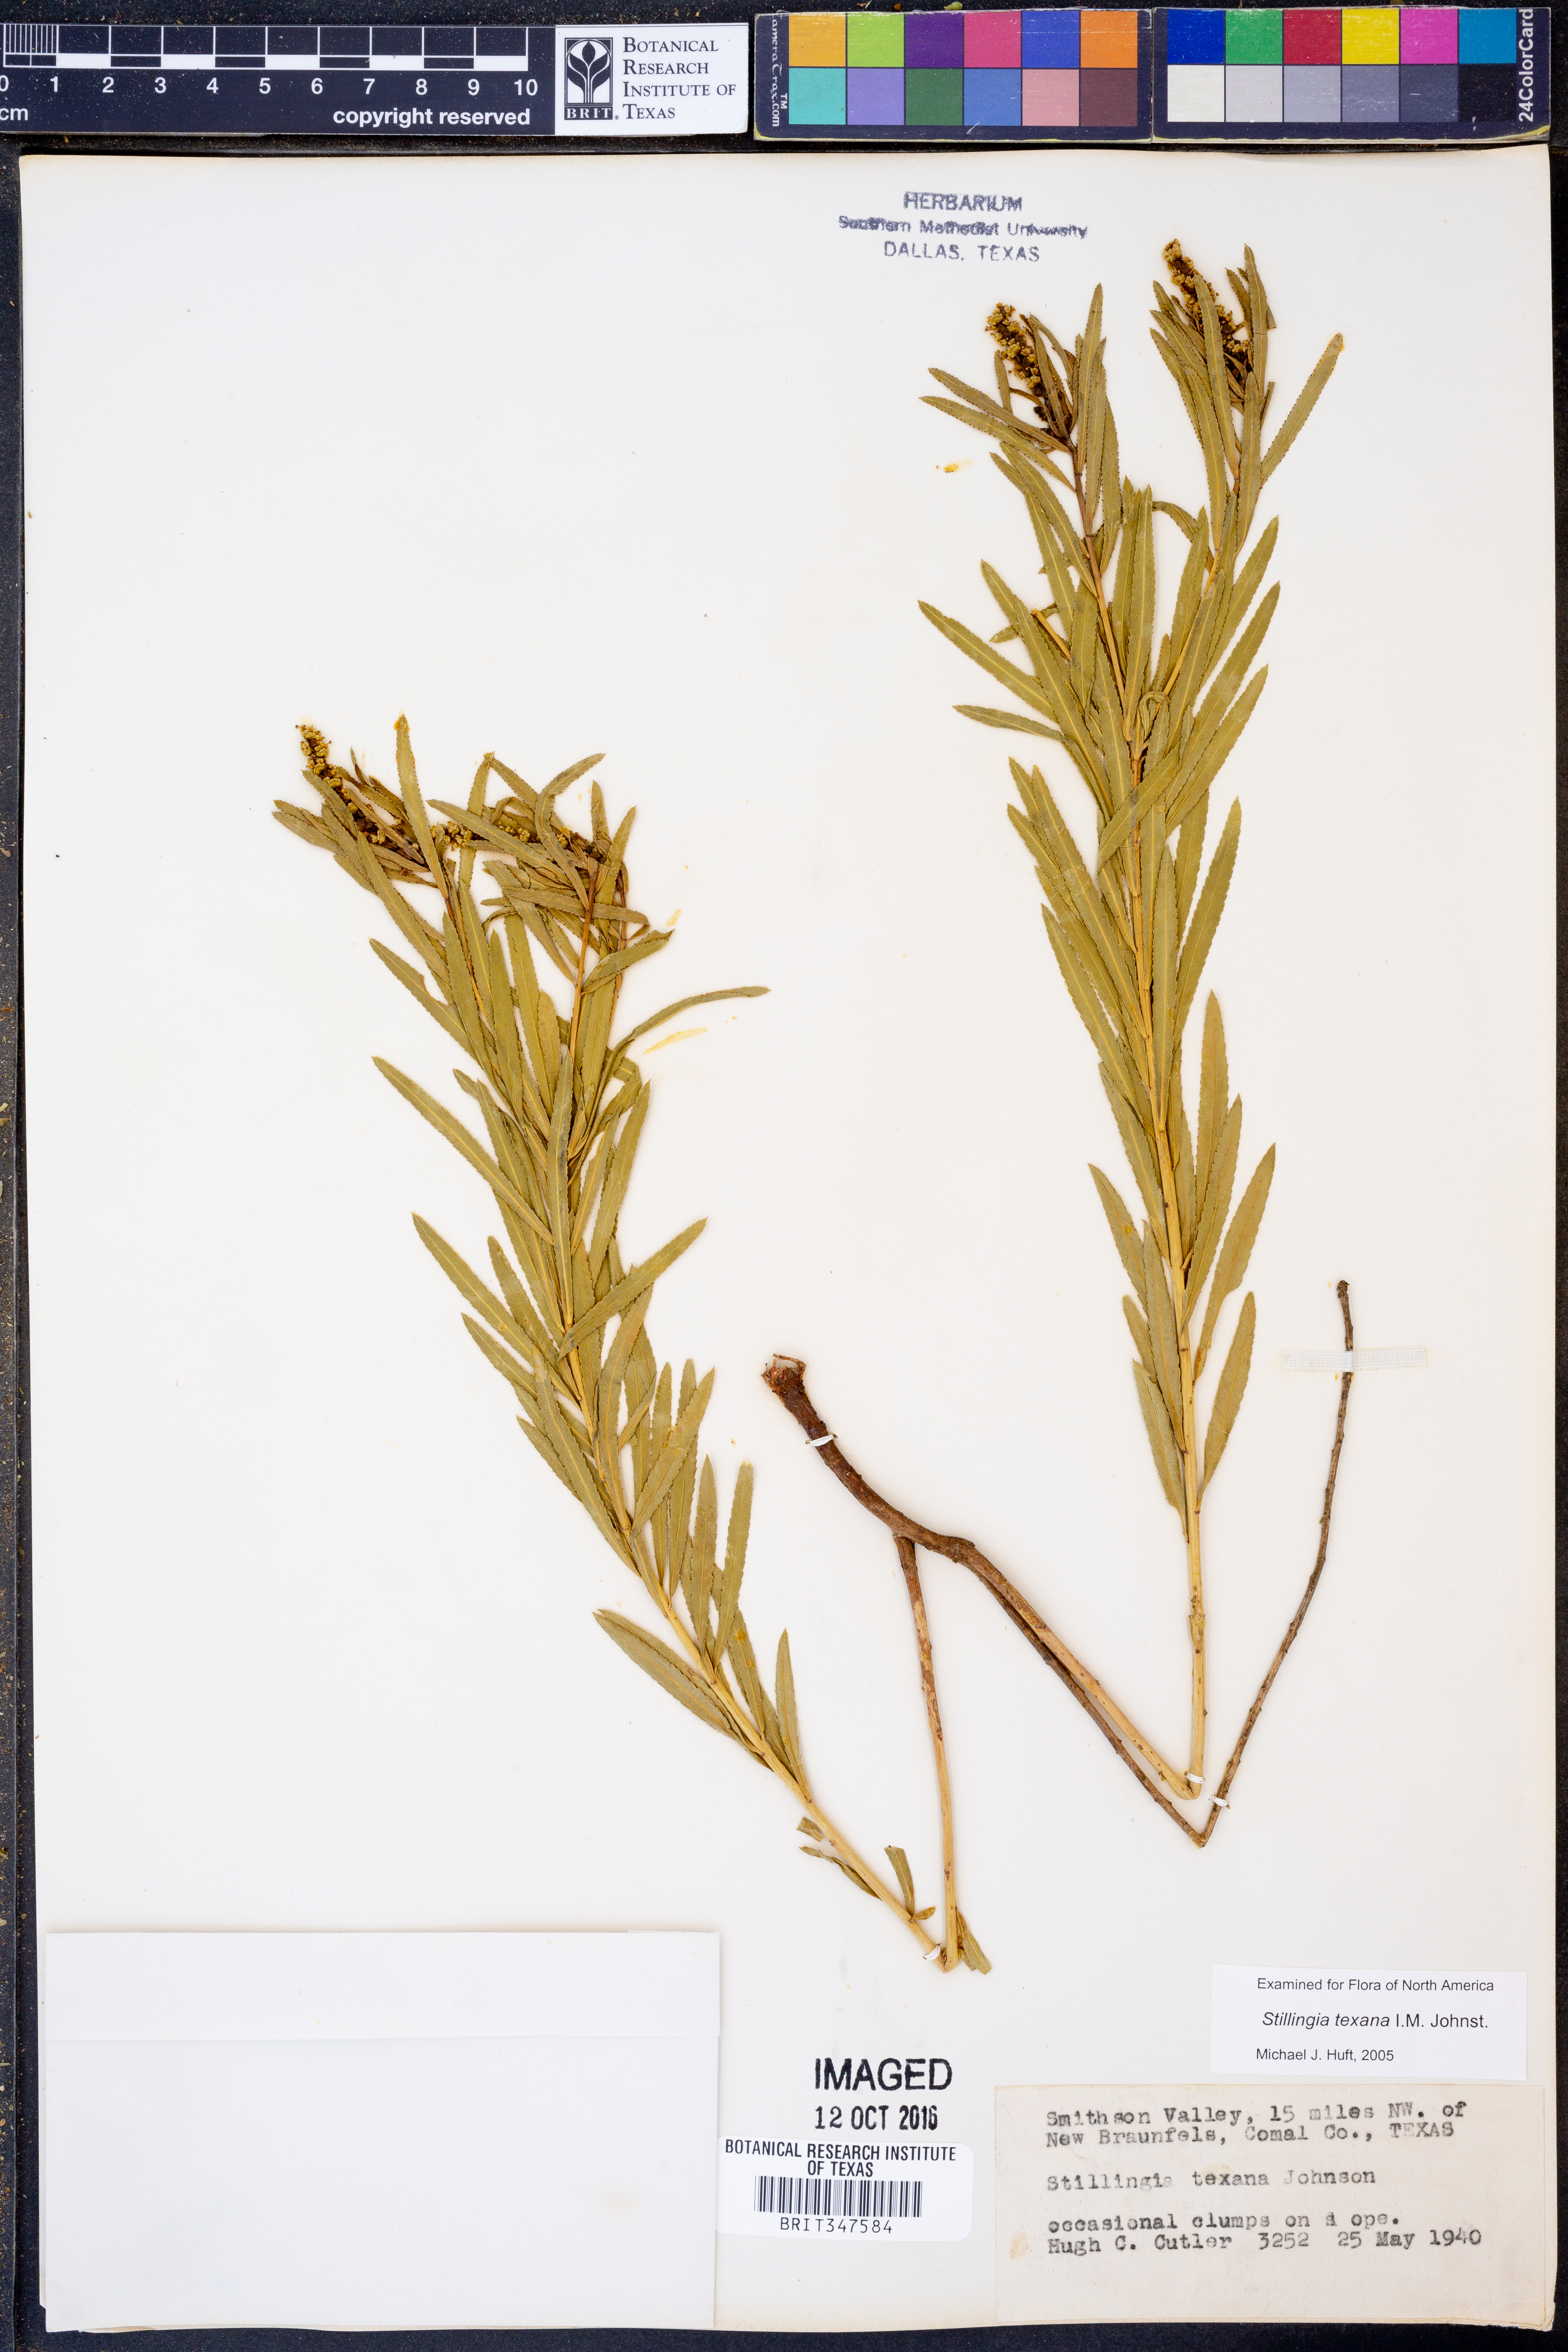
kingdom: Plantae
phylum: Tracheophyta
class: Magnoliopsida
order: Malpighiales
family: Euphorbiaceae
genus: Stillingia
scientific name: Stillingia texana
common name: Texas stillingia
